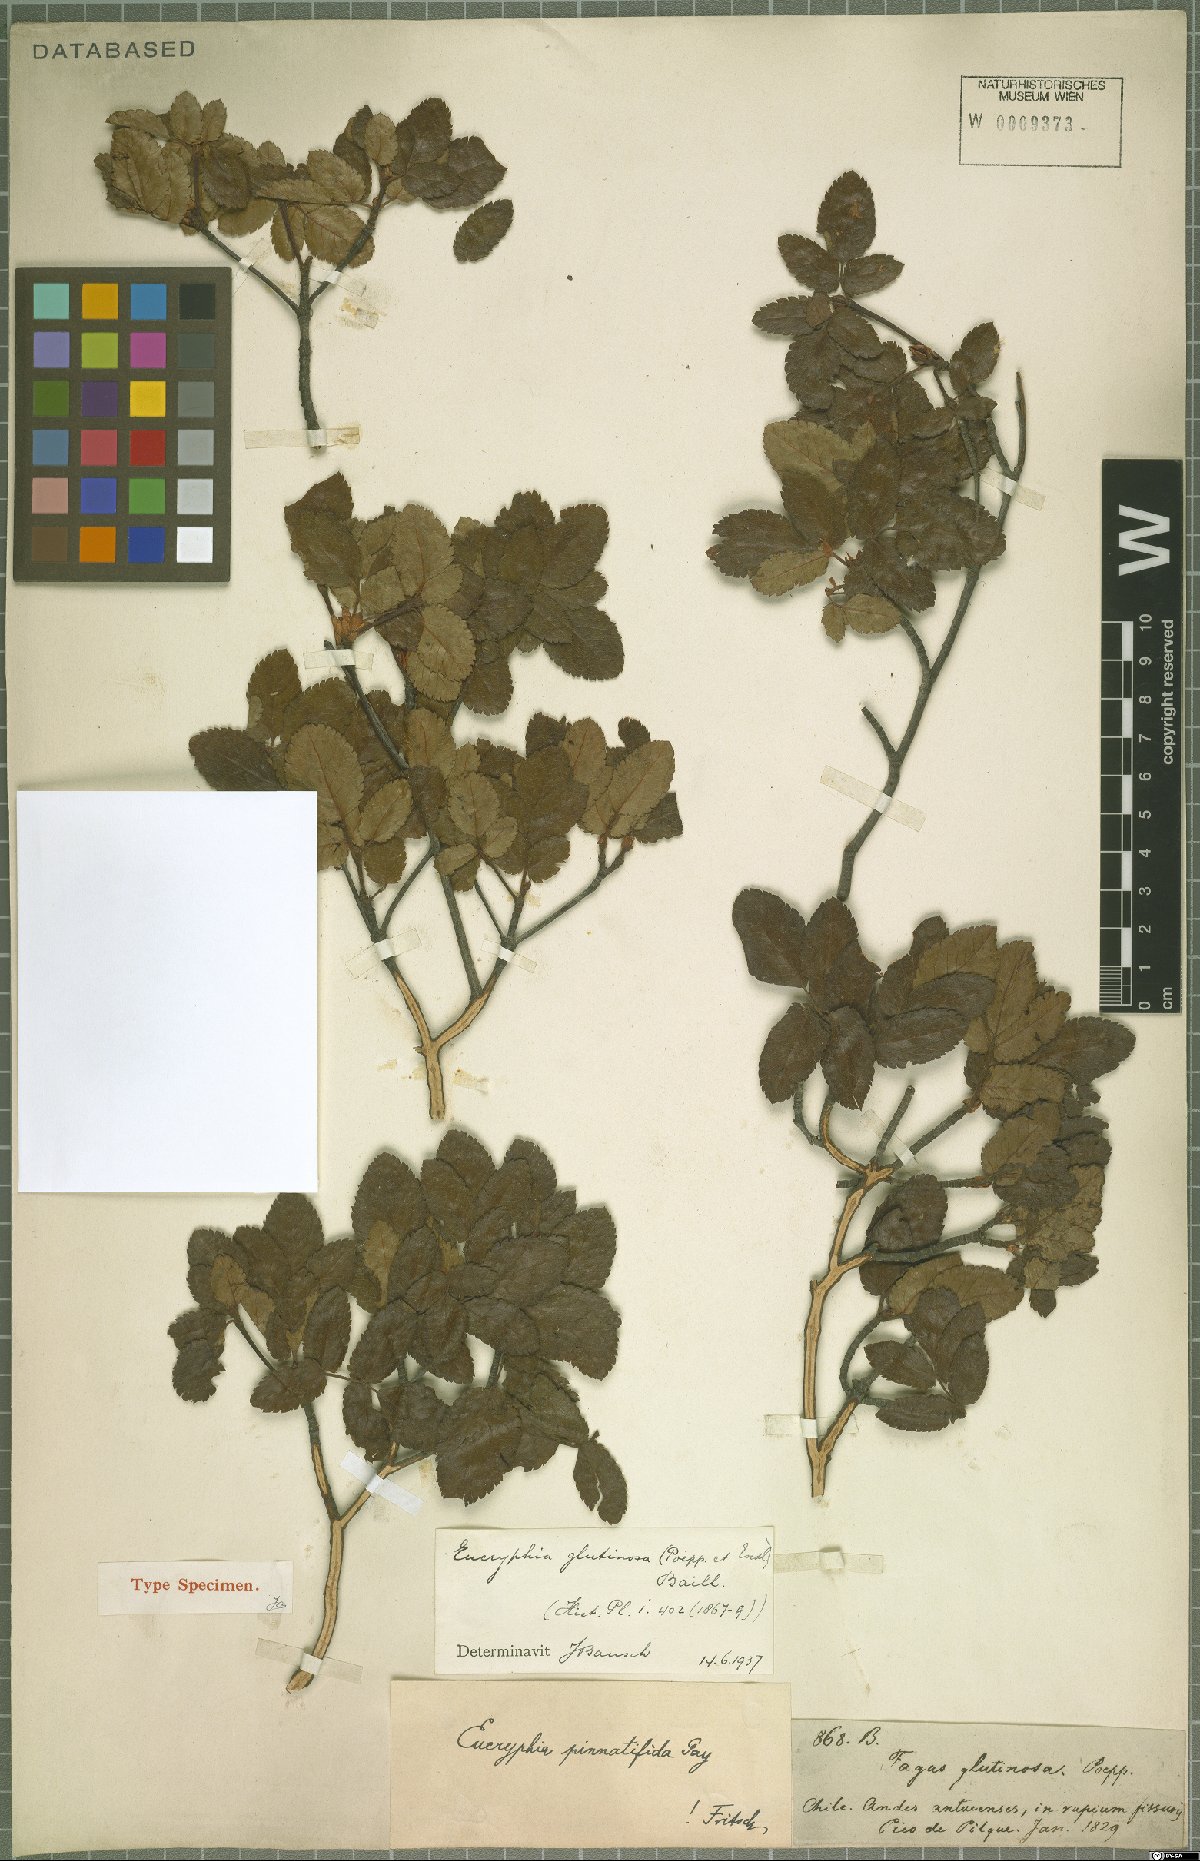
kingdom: Plantae
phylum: Tracheophyta
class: Magnoliopsida
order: Oxalidales
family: Cunoniaceae
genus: Eucryphia
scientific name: Eucryphia glutinosa
